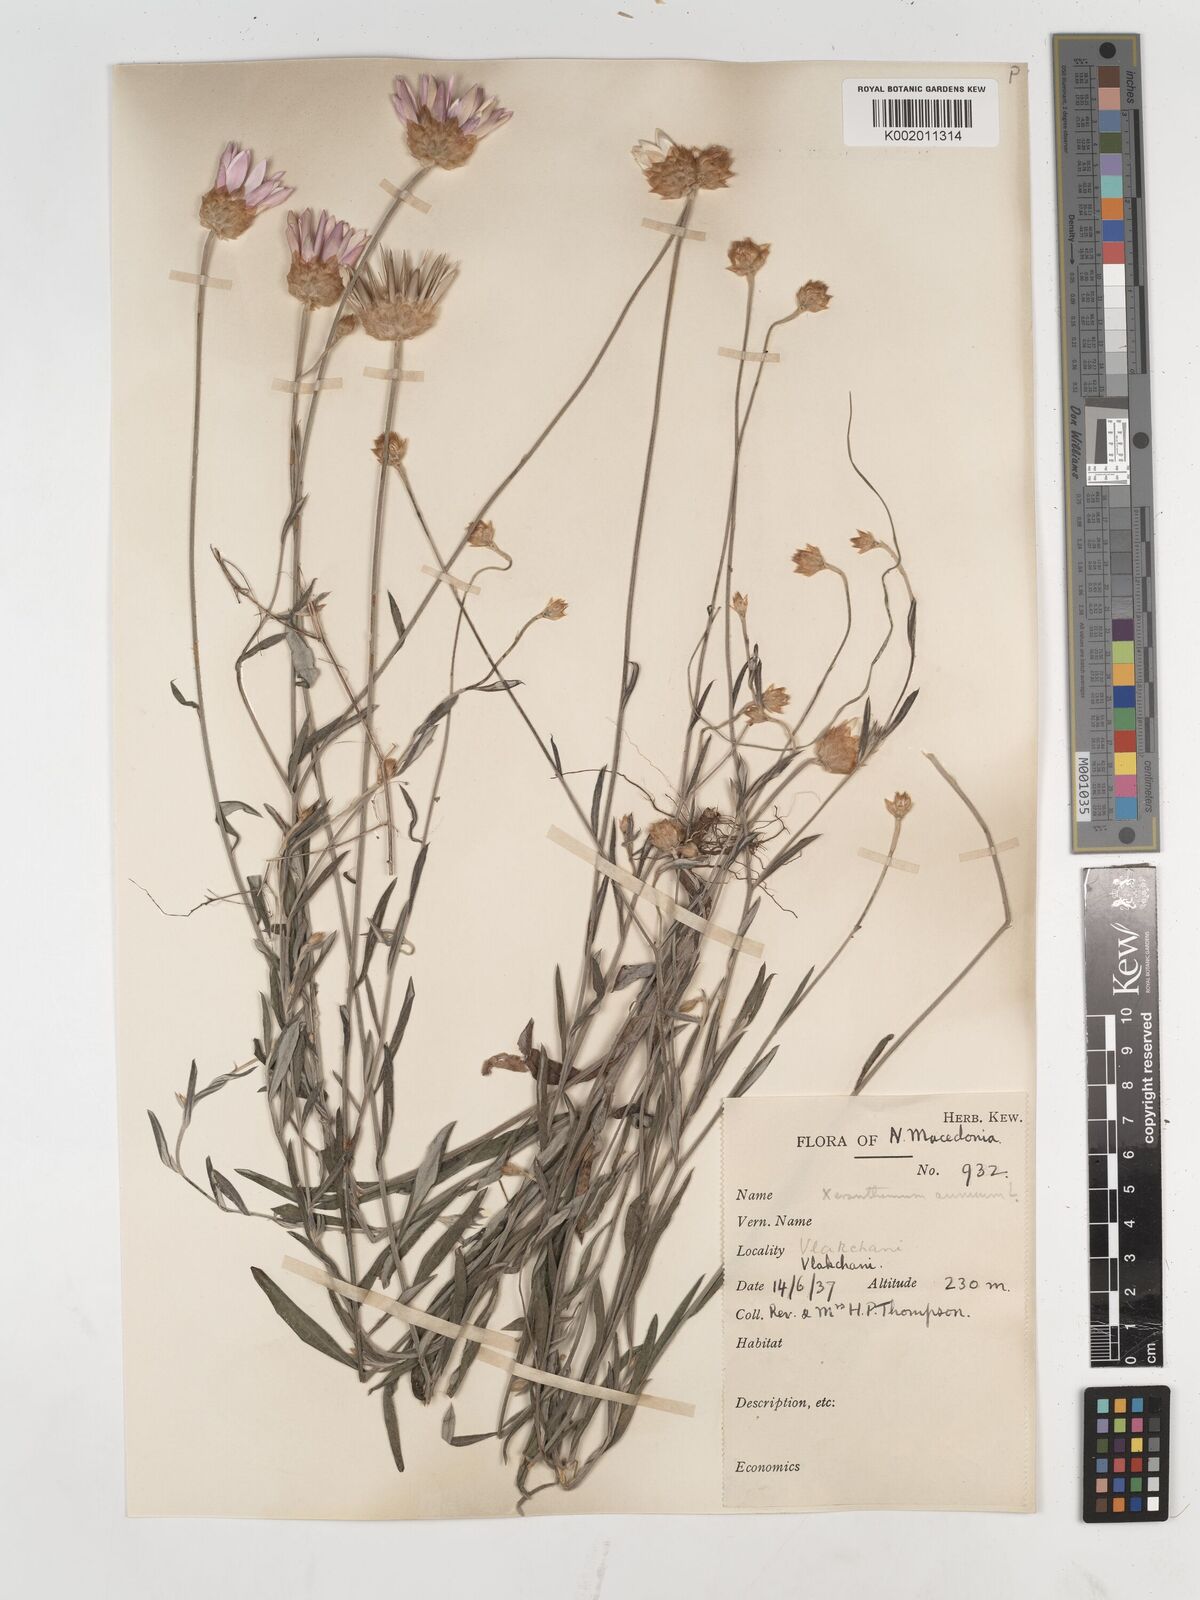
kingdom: Plantae
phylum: Tracheophyta
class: Magnoliopsida
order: Asterales
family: Asteraceae
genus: Xeranthemum
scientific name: Xeranthemum annuum
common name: Immortelle
